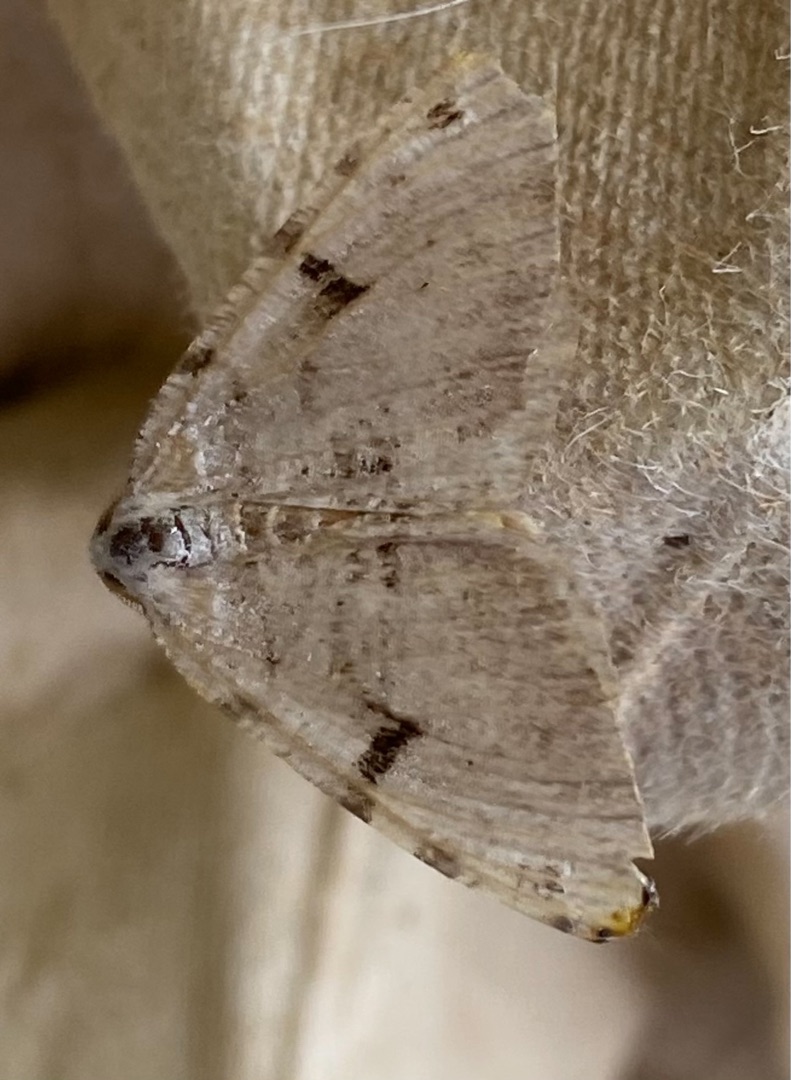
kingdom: Animalia
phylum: Arthropoda
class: Insecta
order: Lepidoptera
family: Geometridae
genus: Macaria
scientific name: Macaria wauaria
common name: Lille stikkelsbærmåler
